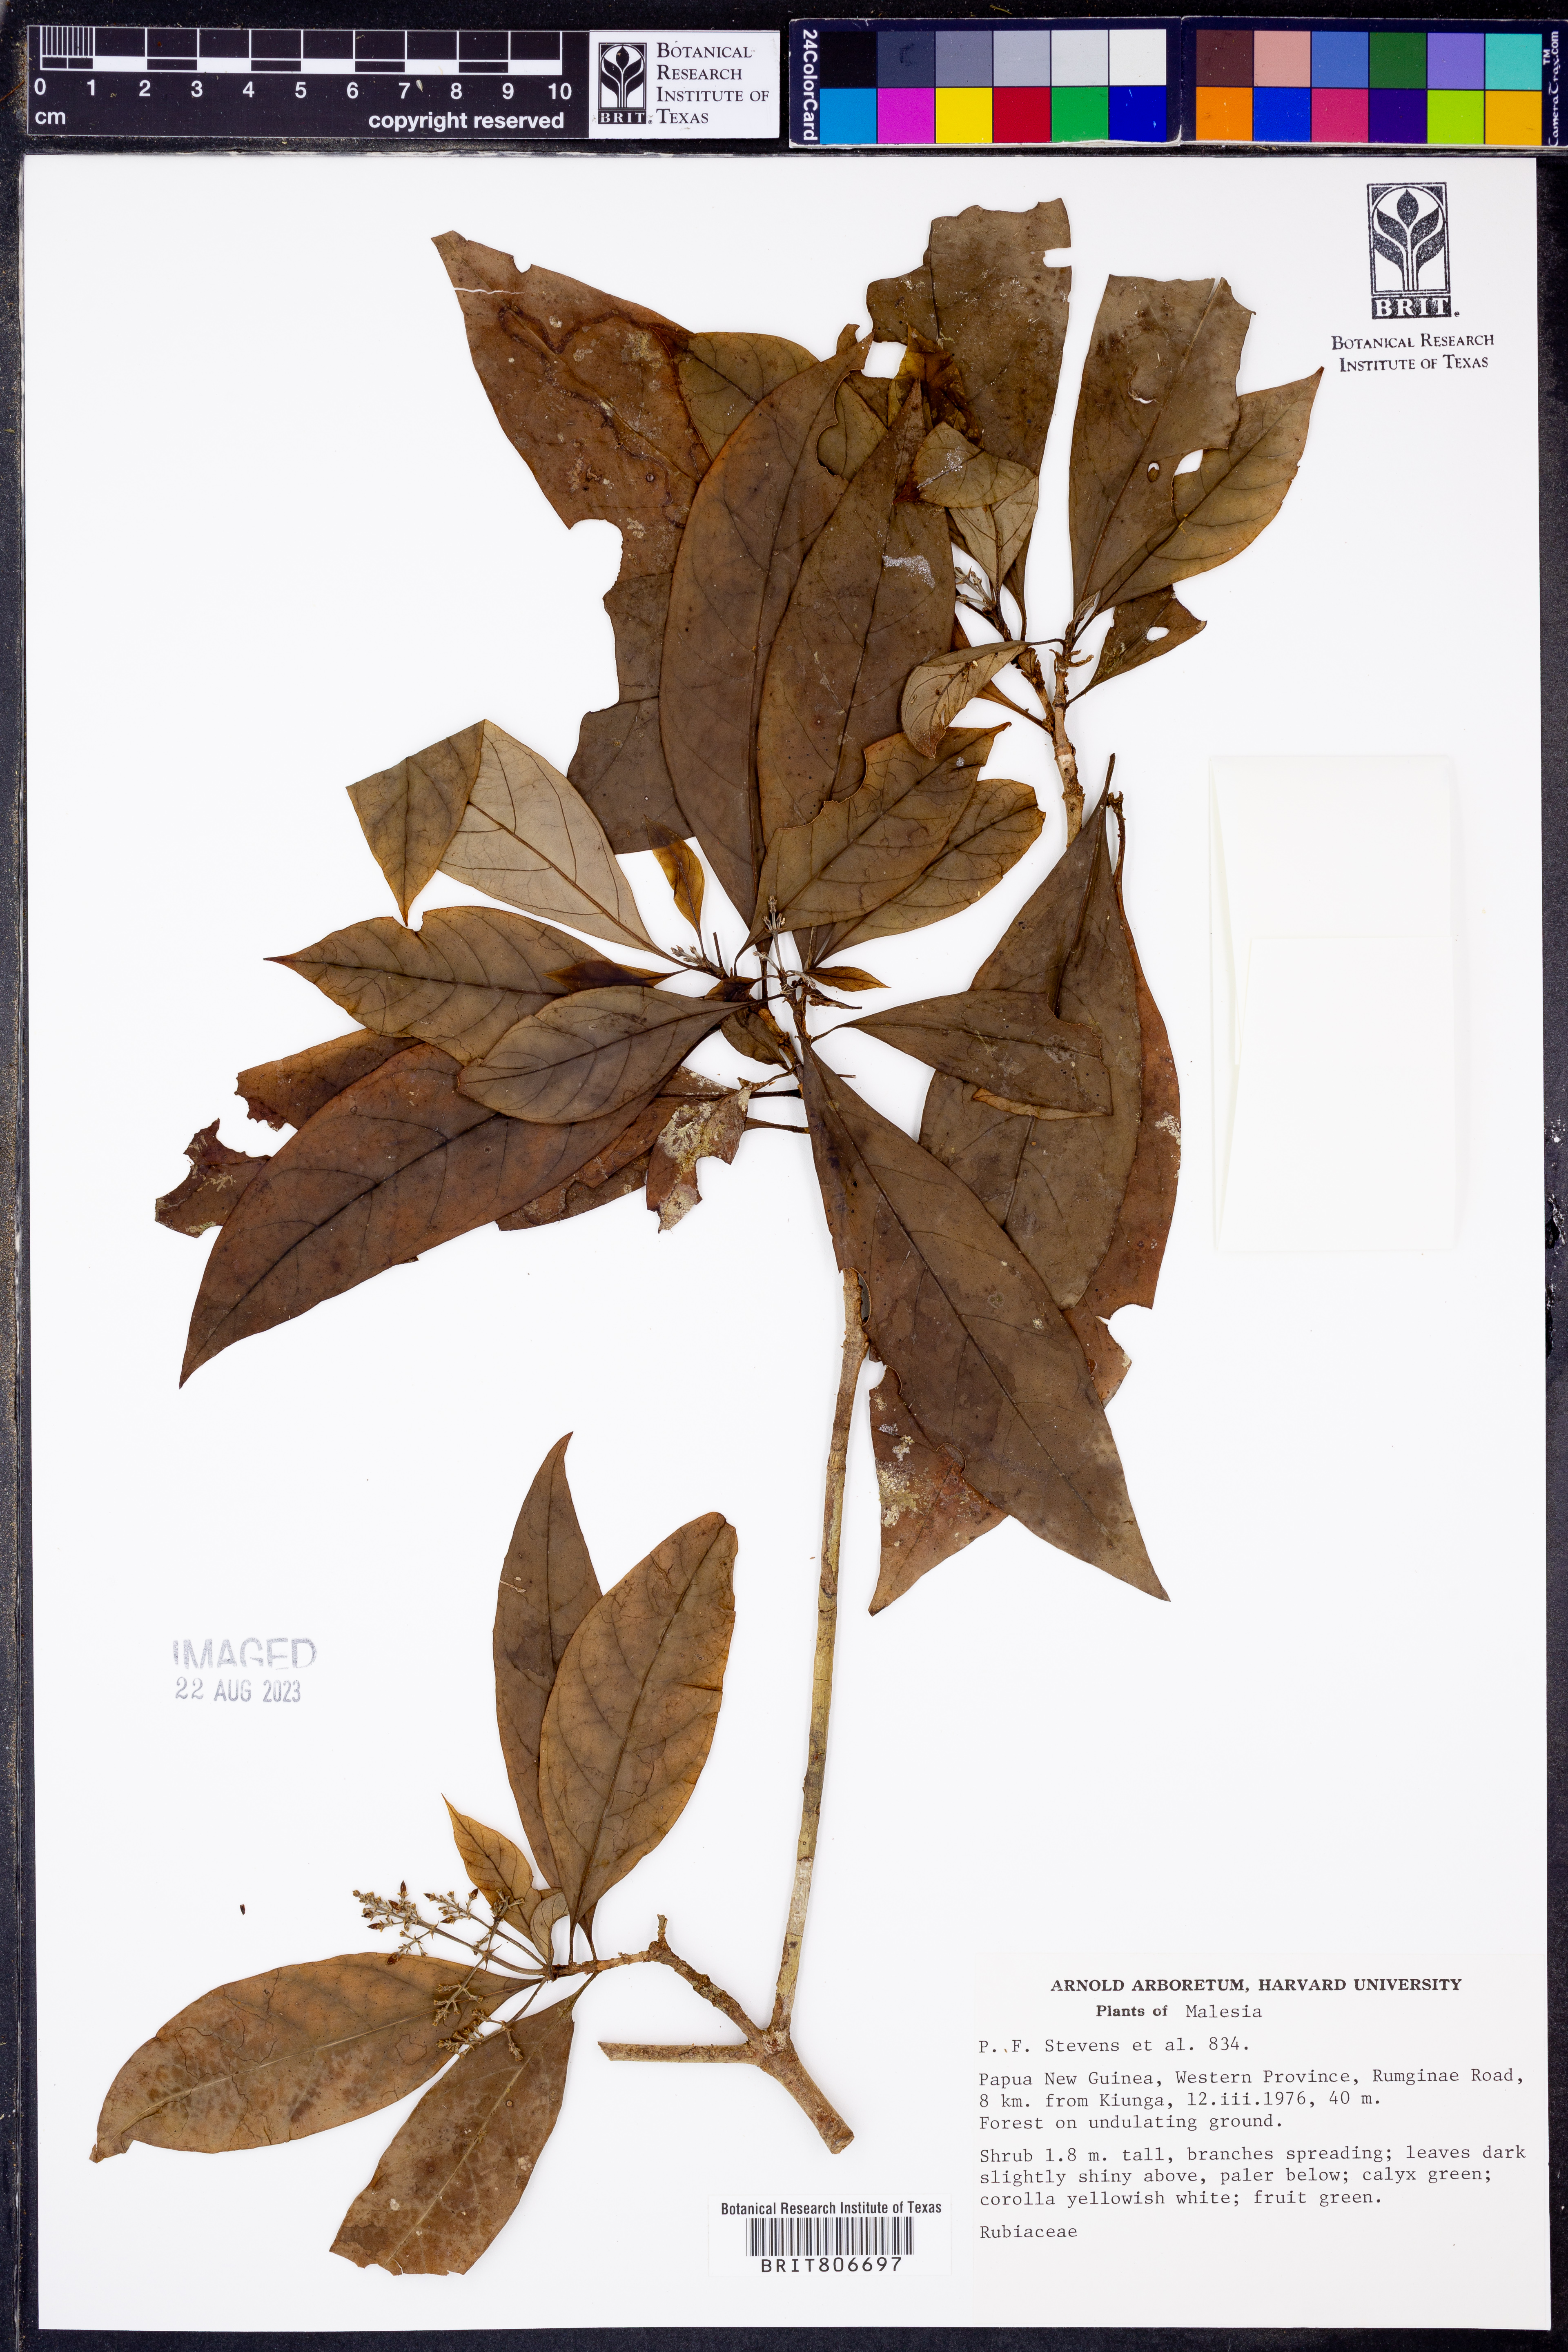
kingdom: Plantae
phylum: Tracheophyta
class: Magnoliopsida
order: Gentianales
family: Rubiaceae
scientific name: Rubiaceae
